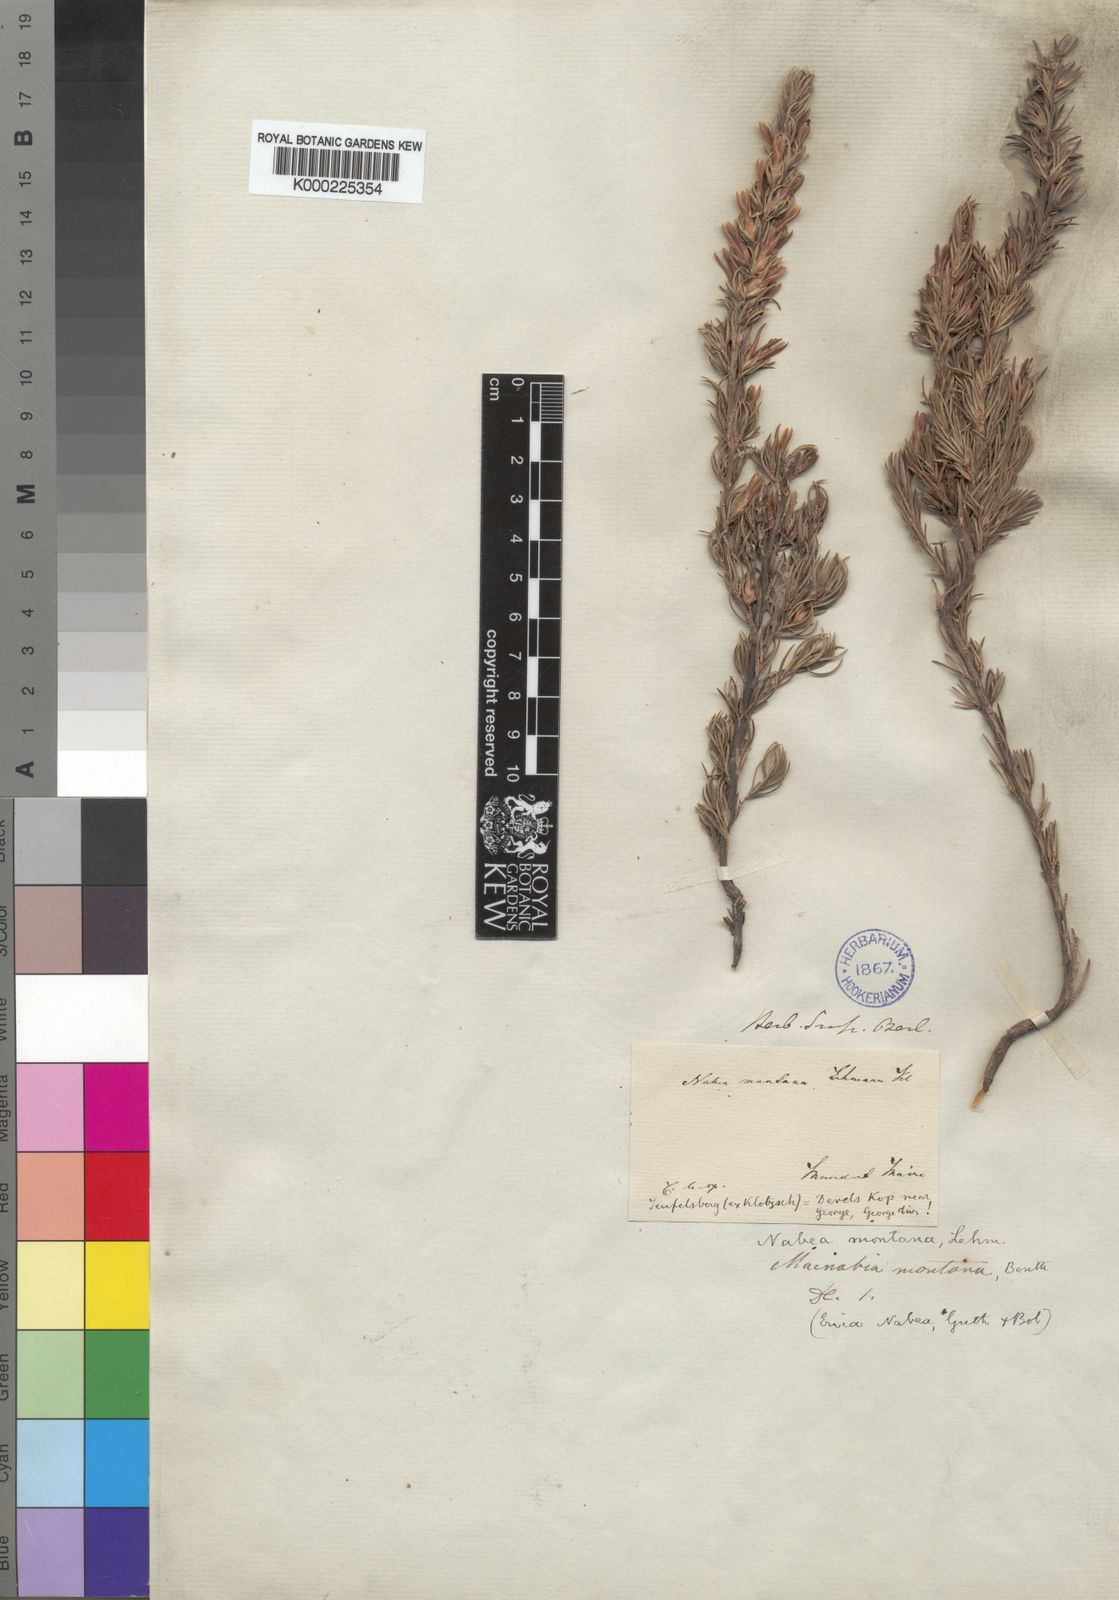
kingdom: Plantae
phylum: Tracheophyta
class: Magnoliopsida
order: Ericales
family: Ericaceae
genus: Erica
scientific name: Erica nabea
